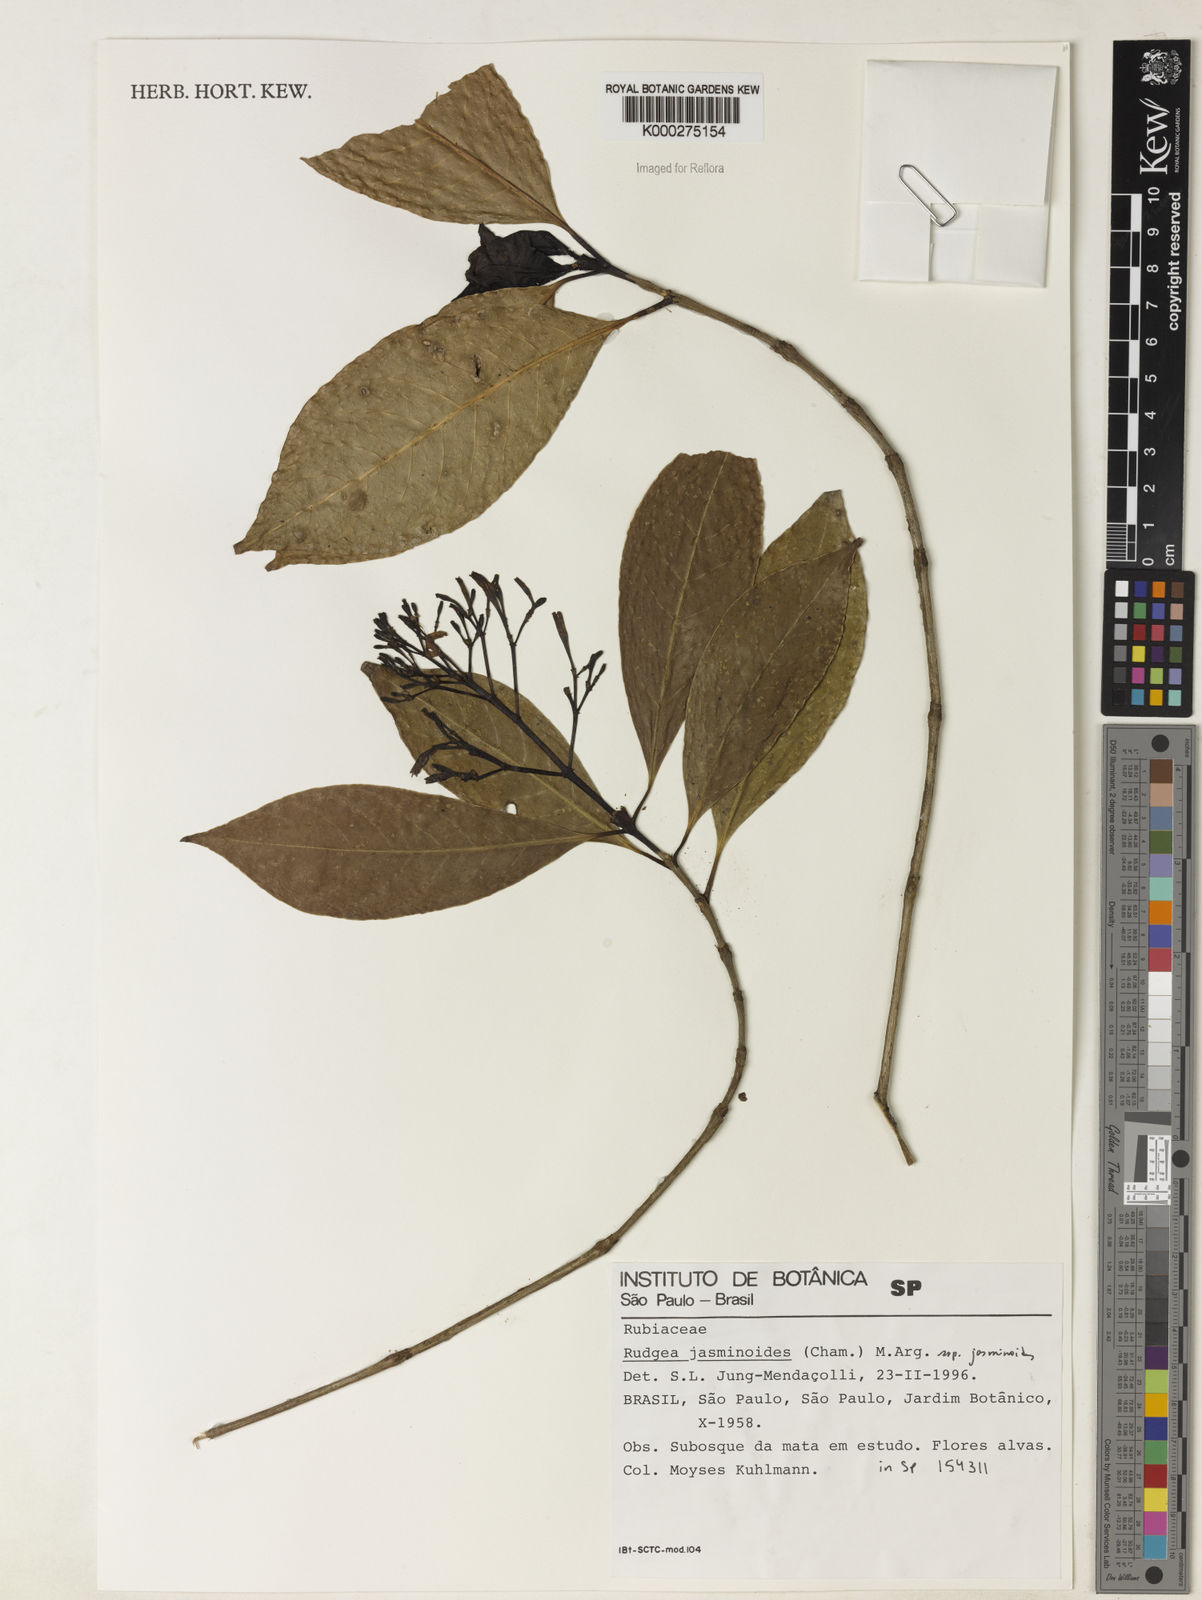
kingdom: Plantae
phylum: Tracheophyta
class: Magnoliopsida
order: Gentianales
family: Rubiaceae
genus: Rudgea
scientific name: Rudgea jasminoides
